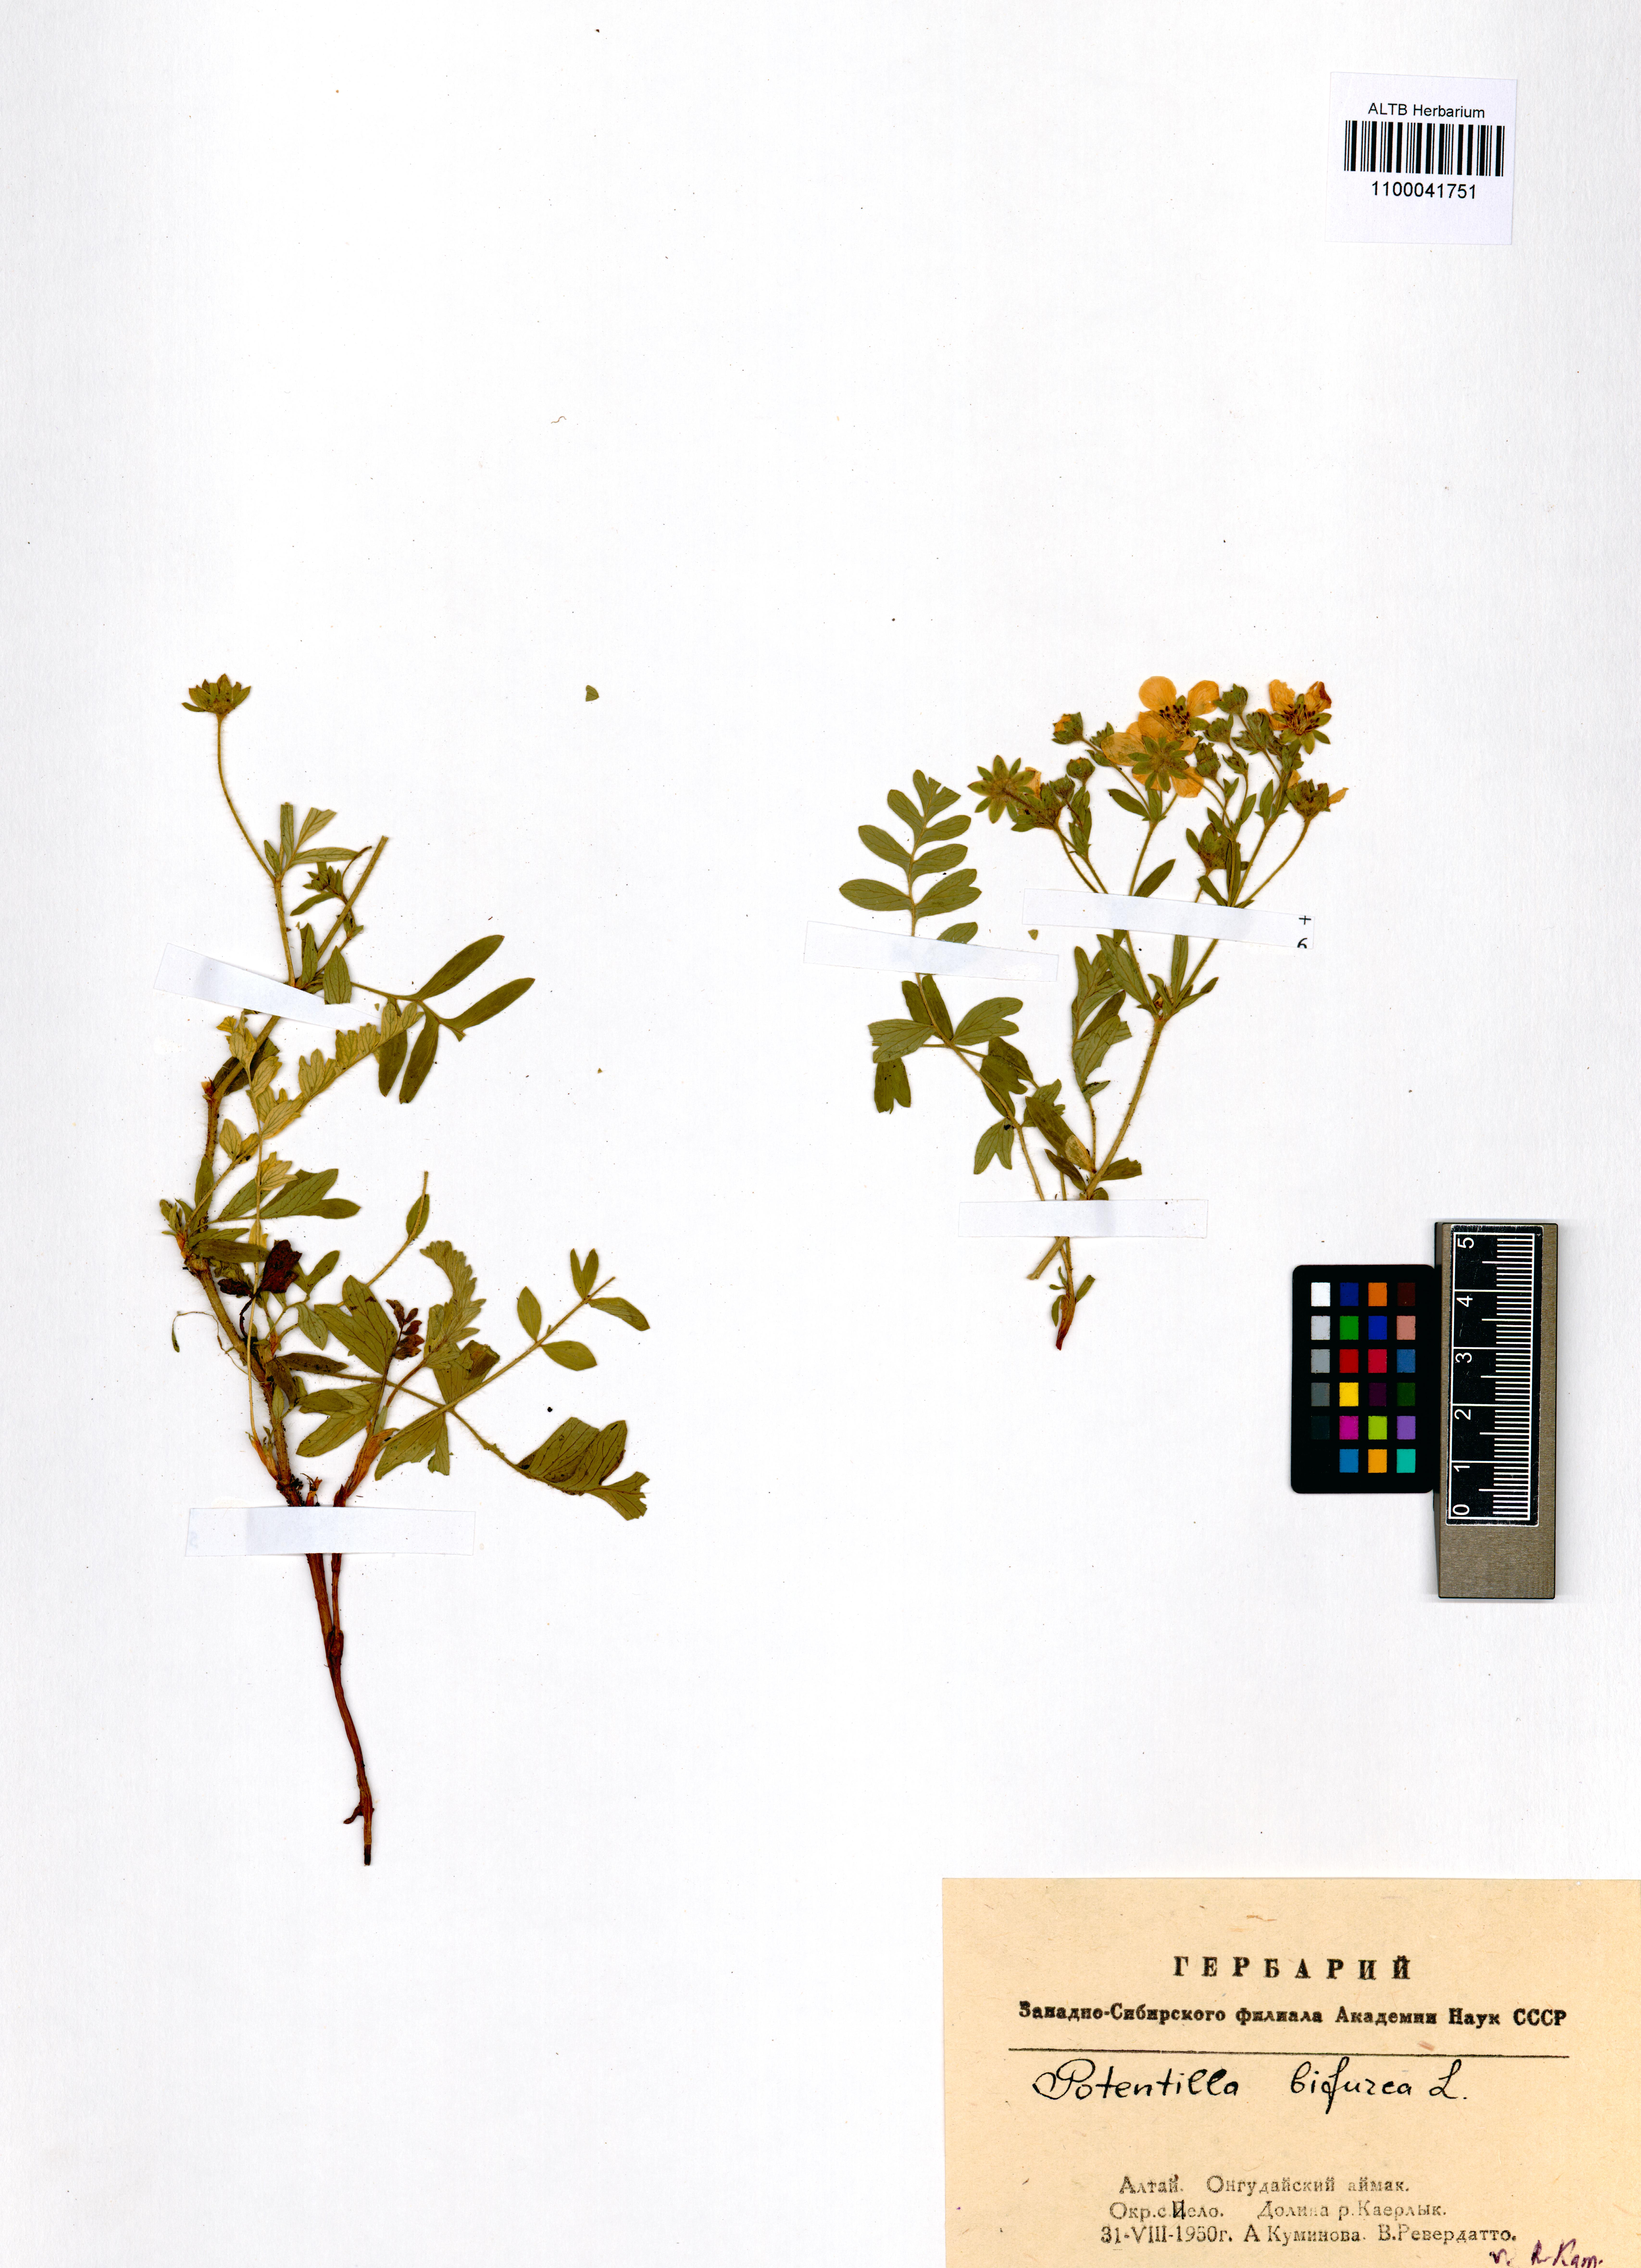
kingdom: Plantae
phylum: Tracheophyta
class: Magnoliopsida
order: Rosales
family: Rosaceae
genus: Sibbaldianthe
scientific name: Sibbaldianthe bifurca
